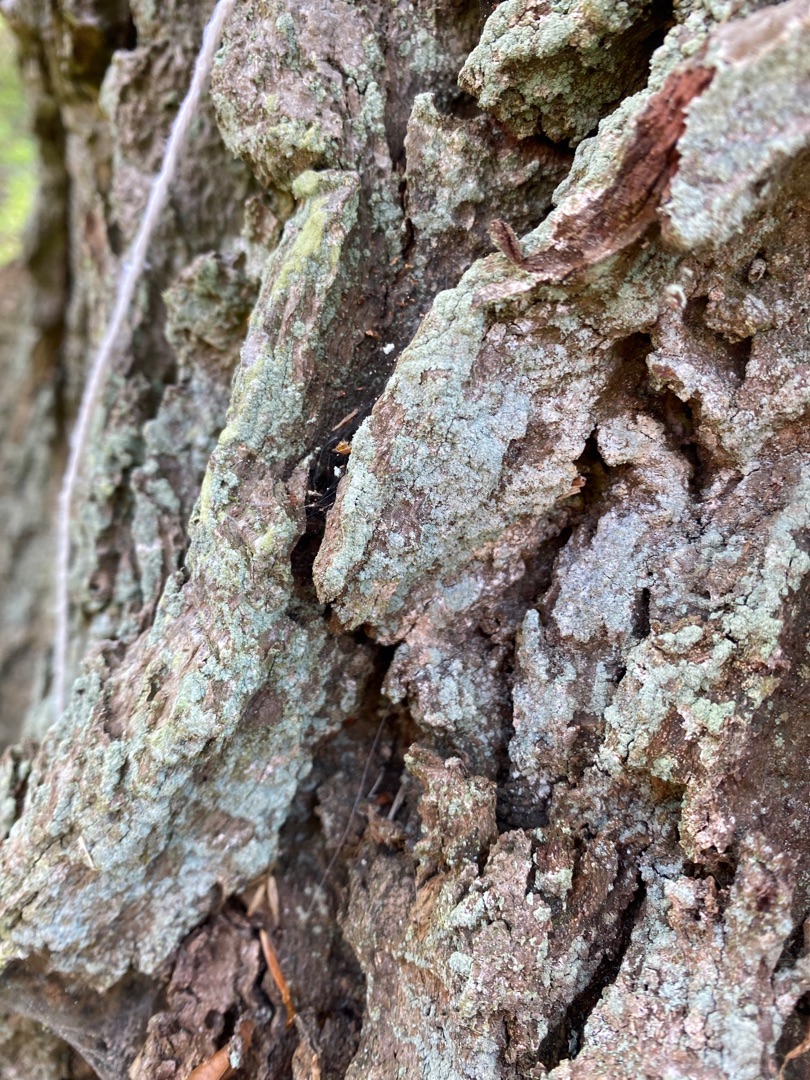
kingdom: Fungi
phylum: Ascomycota
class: Lecanoromycetes
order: Lecanorales
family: Stereocaulaceae
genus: Lepraria
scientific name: Lepraria incana
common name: Almindelig støvlav
